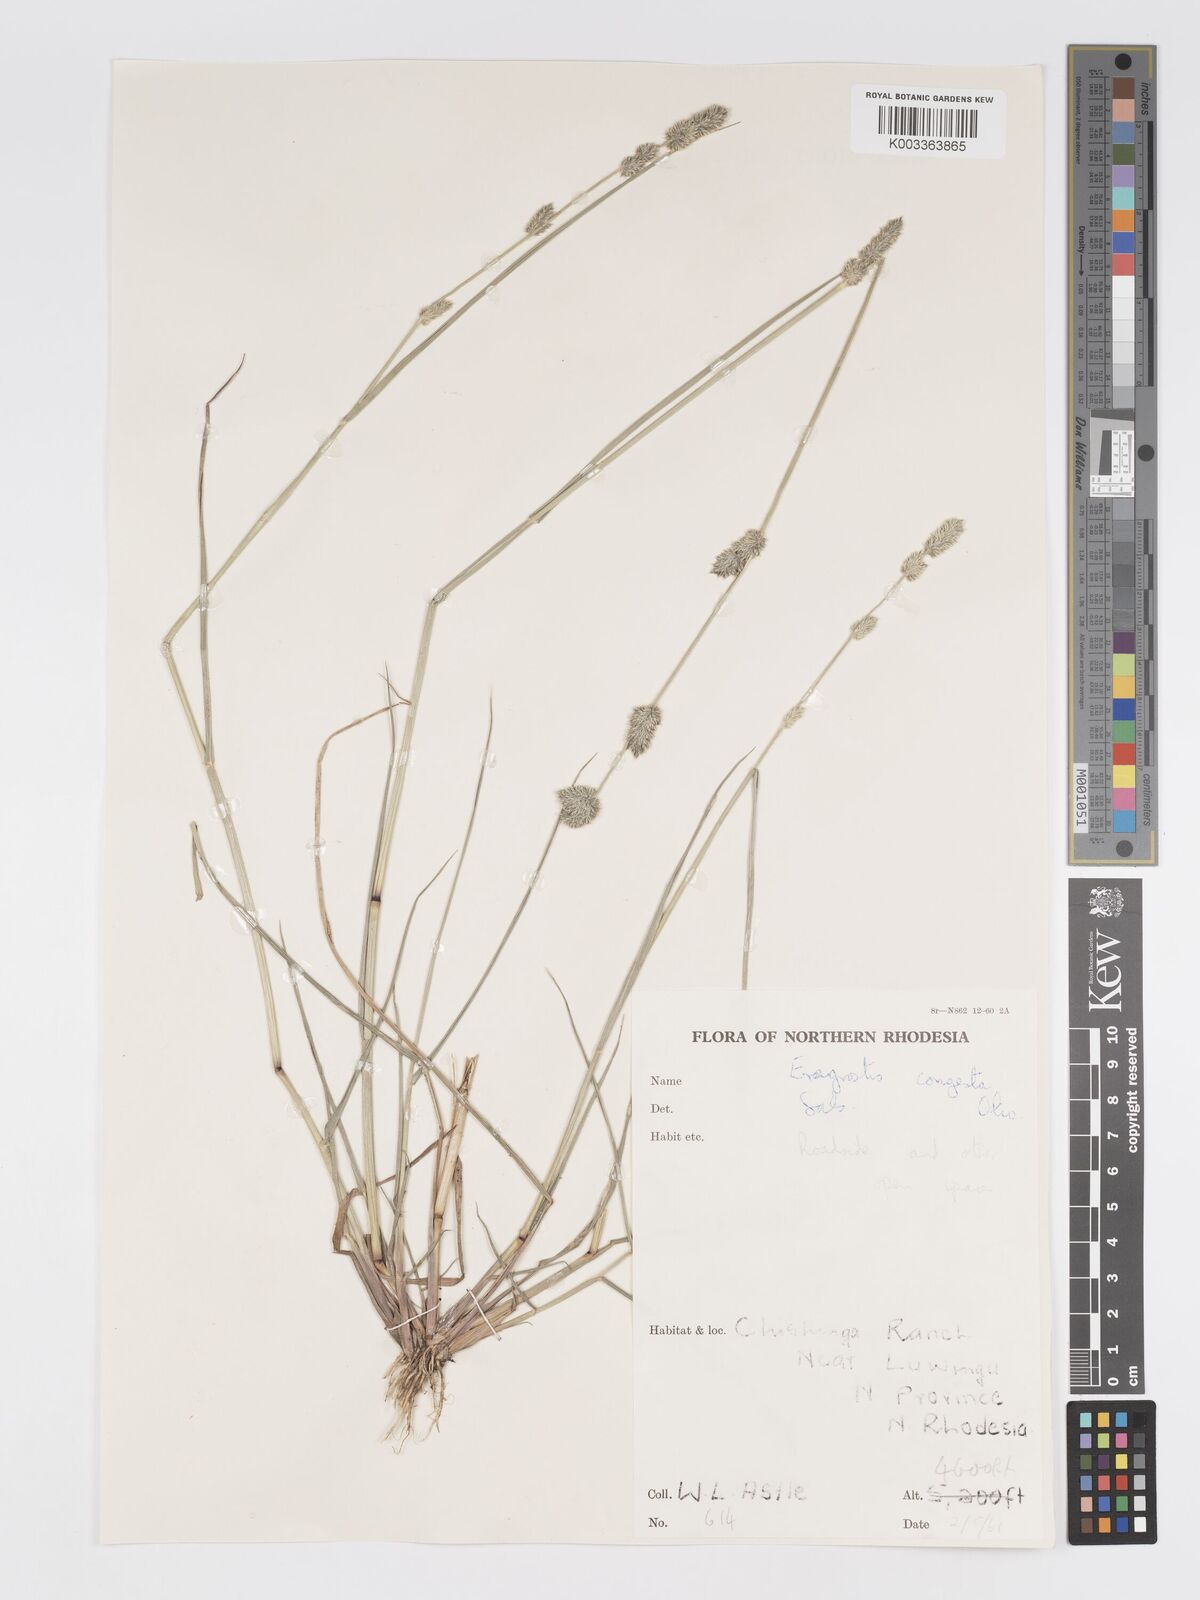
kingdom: Plantae
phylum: Tracheophyta
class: Liliopsida
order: Poales
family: Poaceae
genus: Eragrostis
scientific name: Eragrostis congesta
